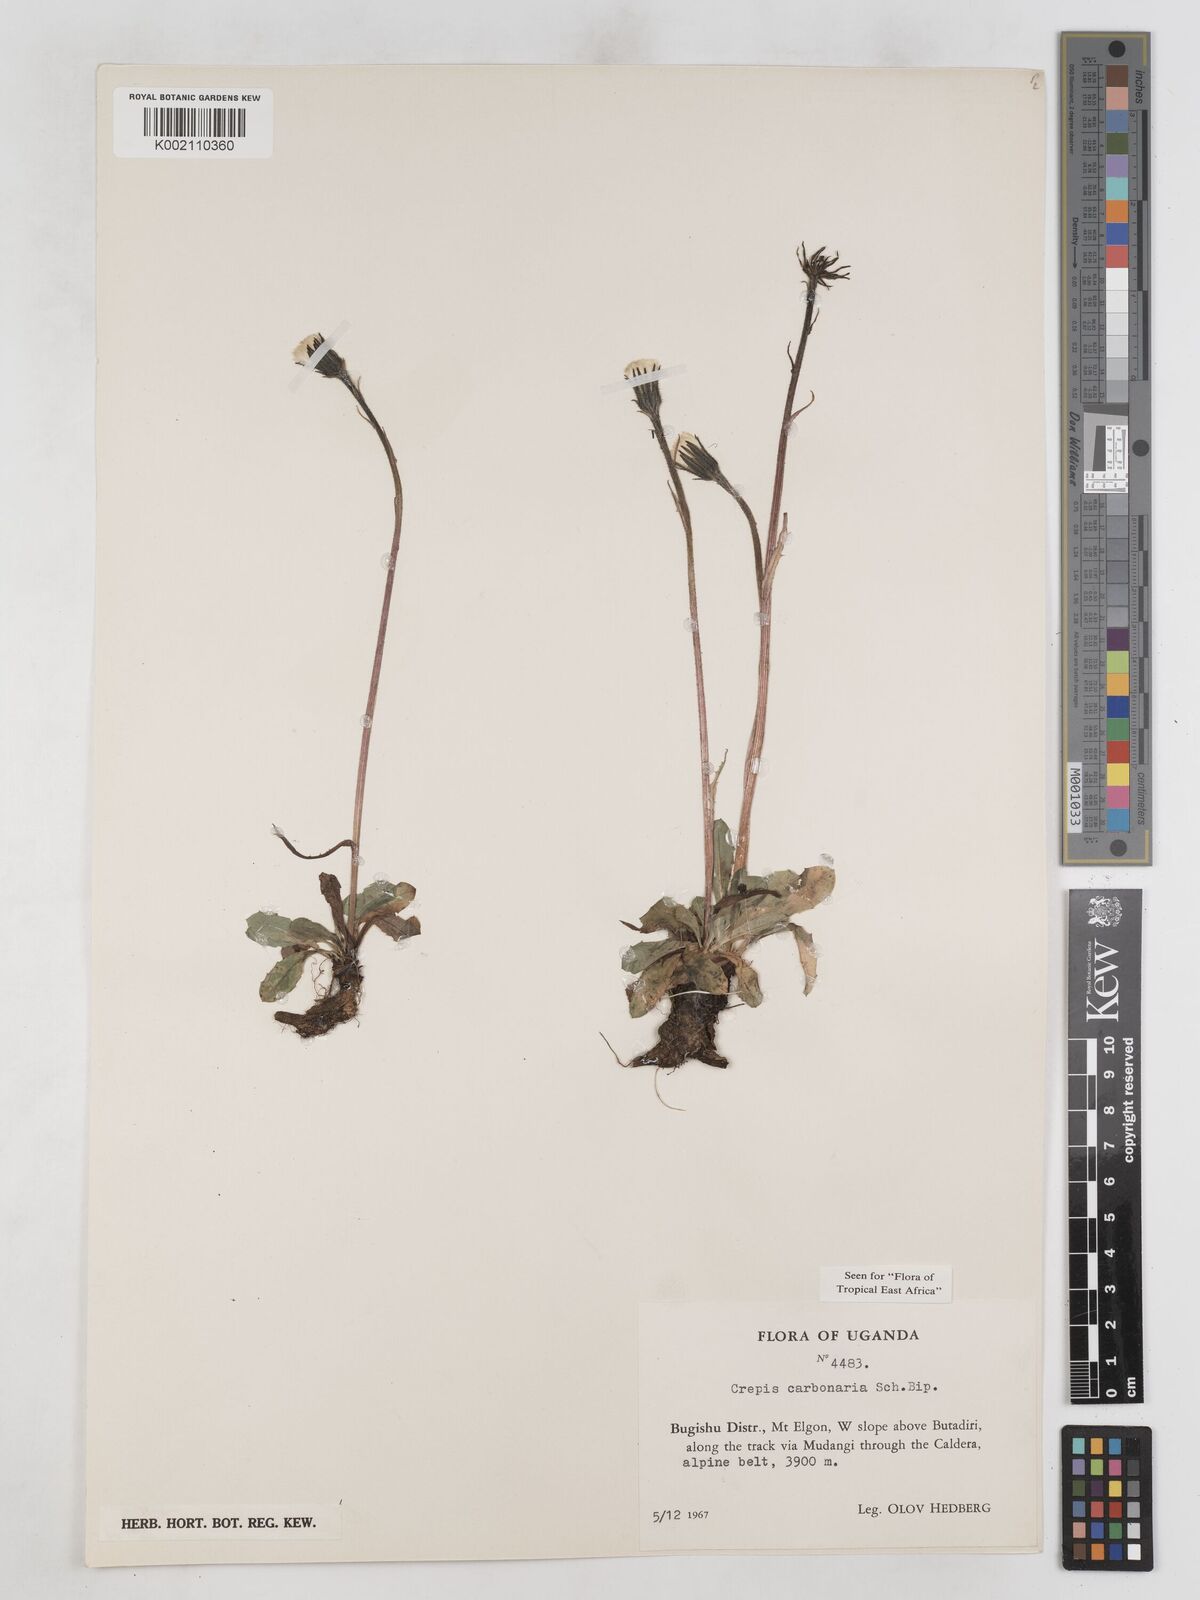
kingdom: Plantae
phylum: Tracheophyta
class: Magnoliopsida
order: Asterales
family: Asteraceae
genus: Crepis
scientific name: Crepis carbonaria
